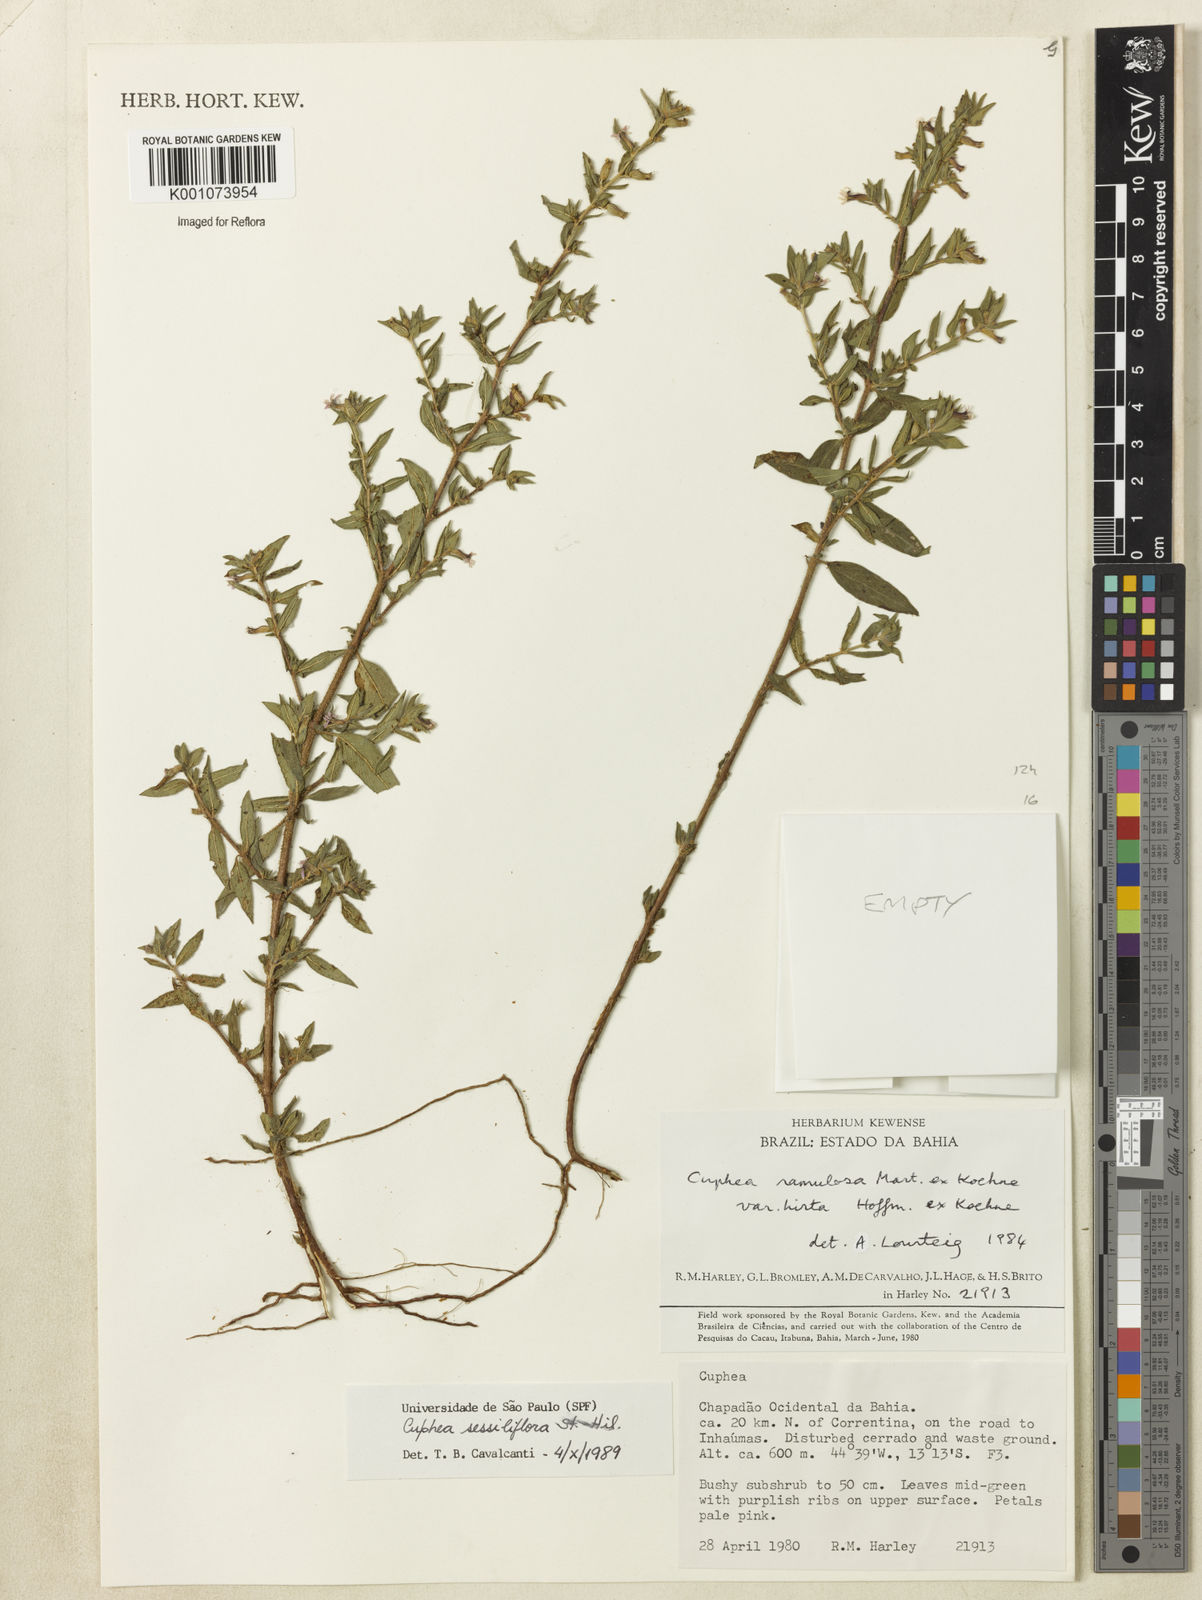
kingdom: Plantae
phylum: Tracheophyta
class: Magnoliopsida
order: Myrtales
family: Lythraceae
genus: Cuphea
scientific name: Cuphea sessiliflora
